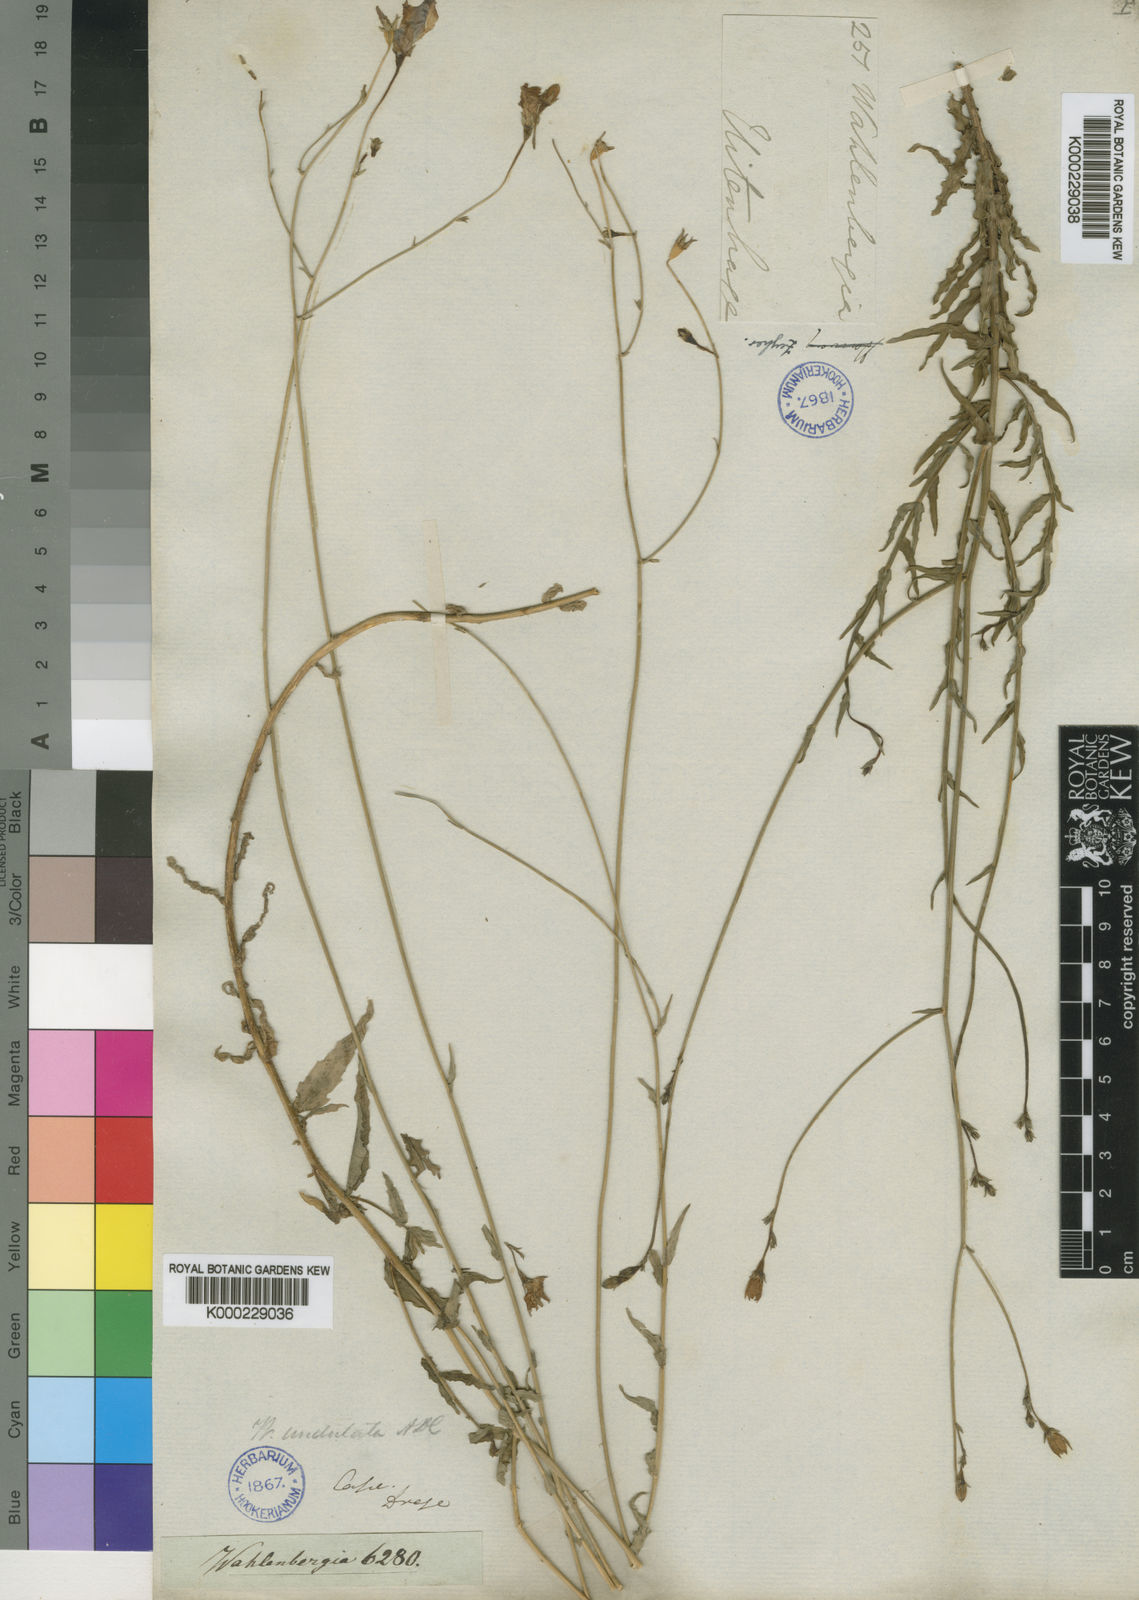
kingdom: Plantae
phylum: Tracheophyta
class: Magnoliopsida
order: Asterales
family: Campanulaceae
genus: Wahlenbergia
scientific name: Wahlenbergia undulata
